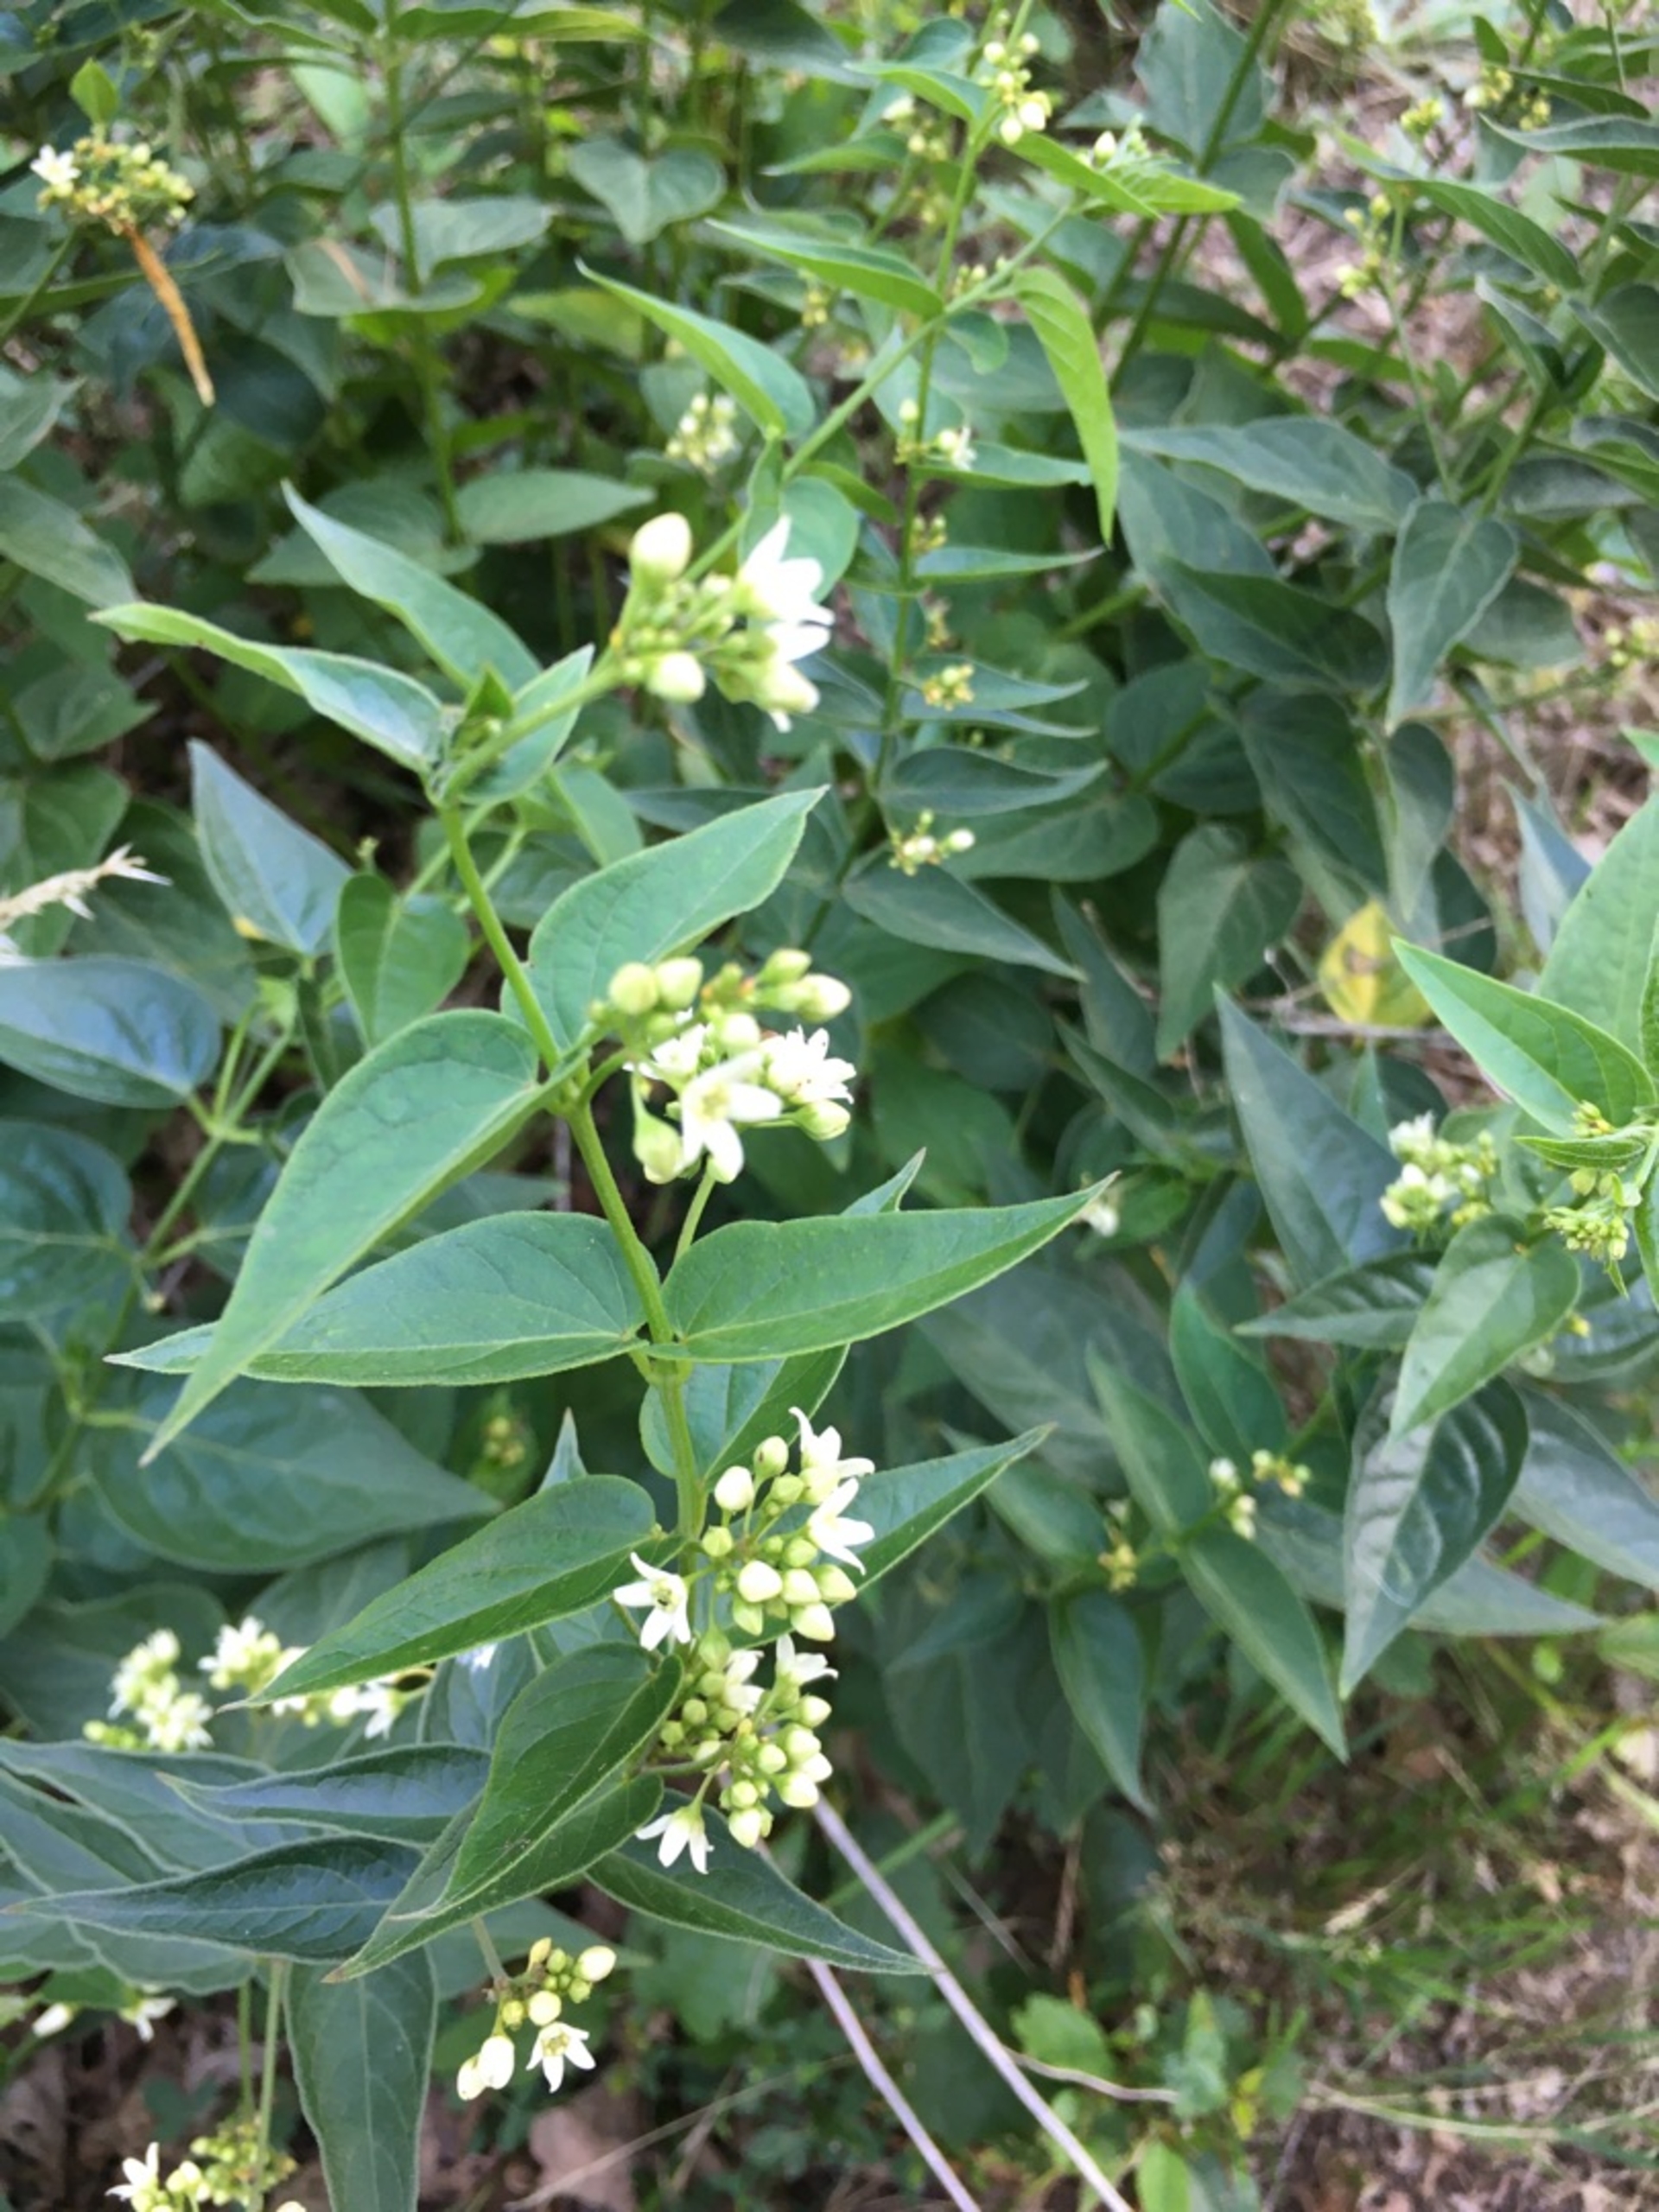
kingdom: Plantae
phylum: Tracheophyta
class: Magnoliopsida
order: Gentianales
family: Apocynaceae
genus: Vincetoxicum
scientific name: Vincetoxicum hirundinaria
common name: Svalerod
